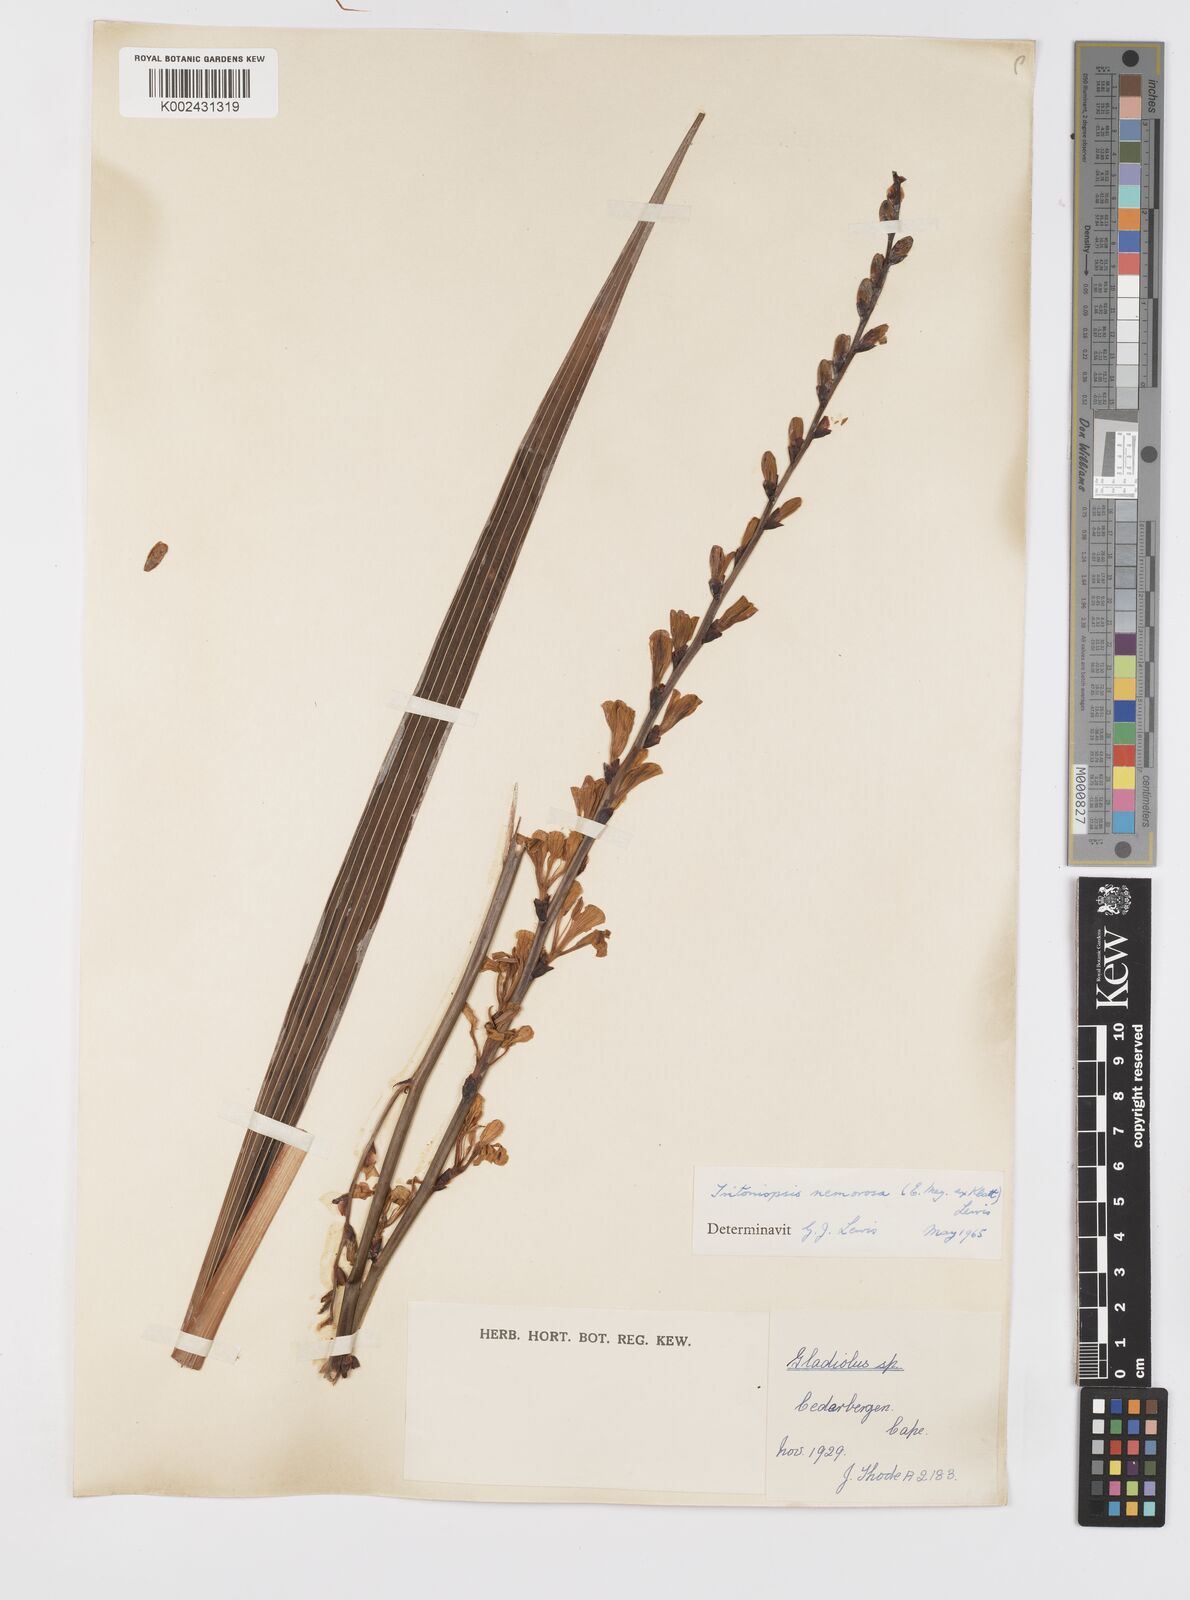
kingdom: Plantae
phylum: Tracheophyta
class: Liliopsida
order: Asparagales
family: Iridaceae
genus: Tritoniopsis
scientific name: Tritoniopsis nemorosa
